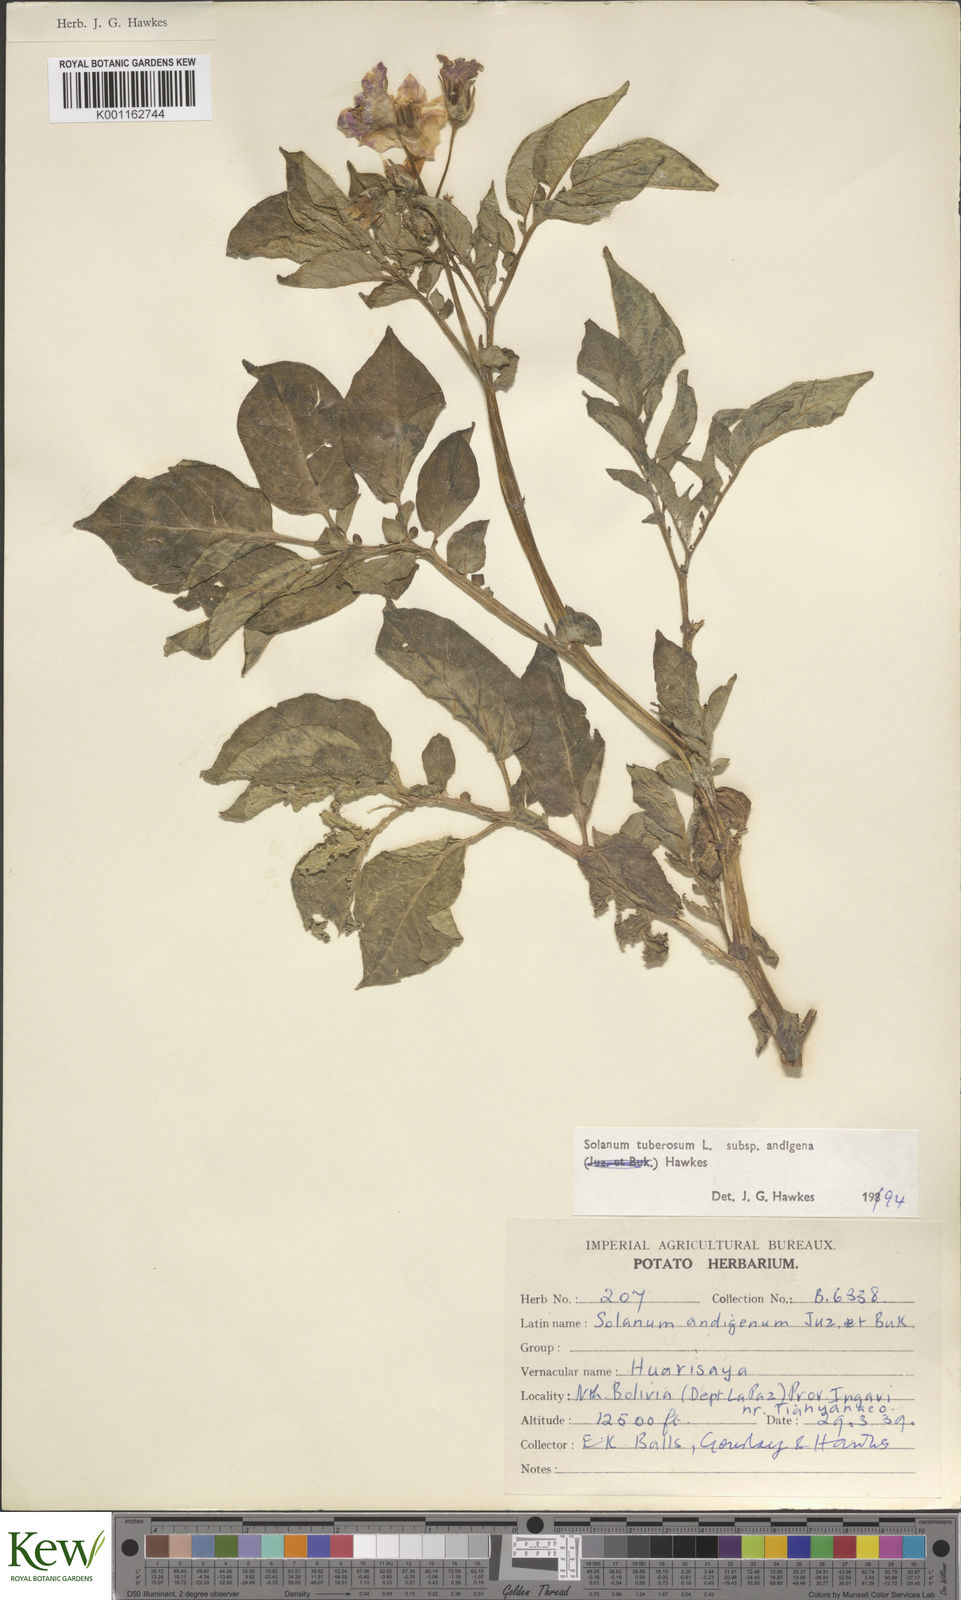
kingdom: Plantae
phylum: Tracheophyta
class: Magnoliopsida
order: Solanales
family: Solanaceae
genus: Solanum
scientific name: Solanum tuberosum
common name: Potato
